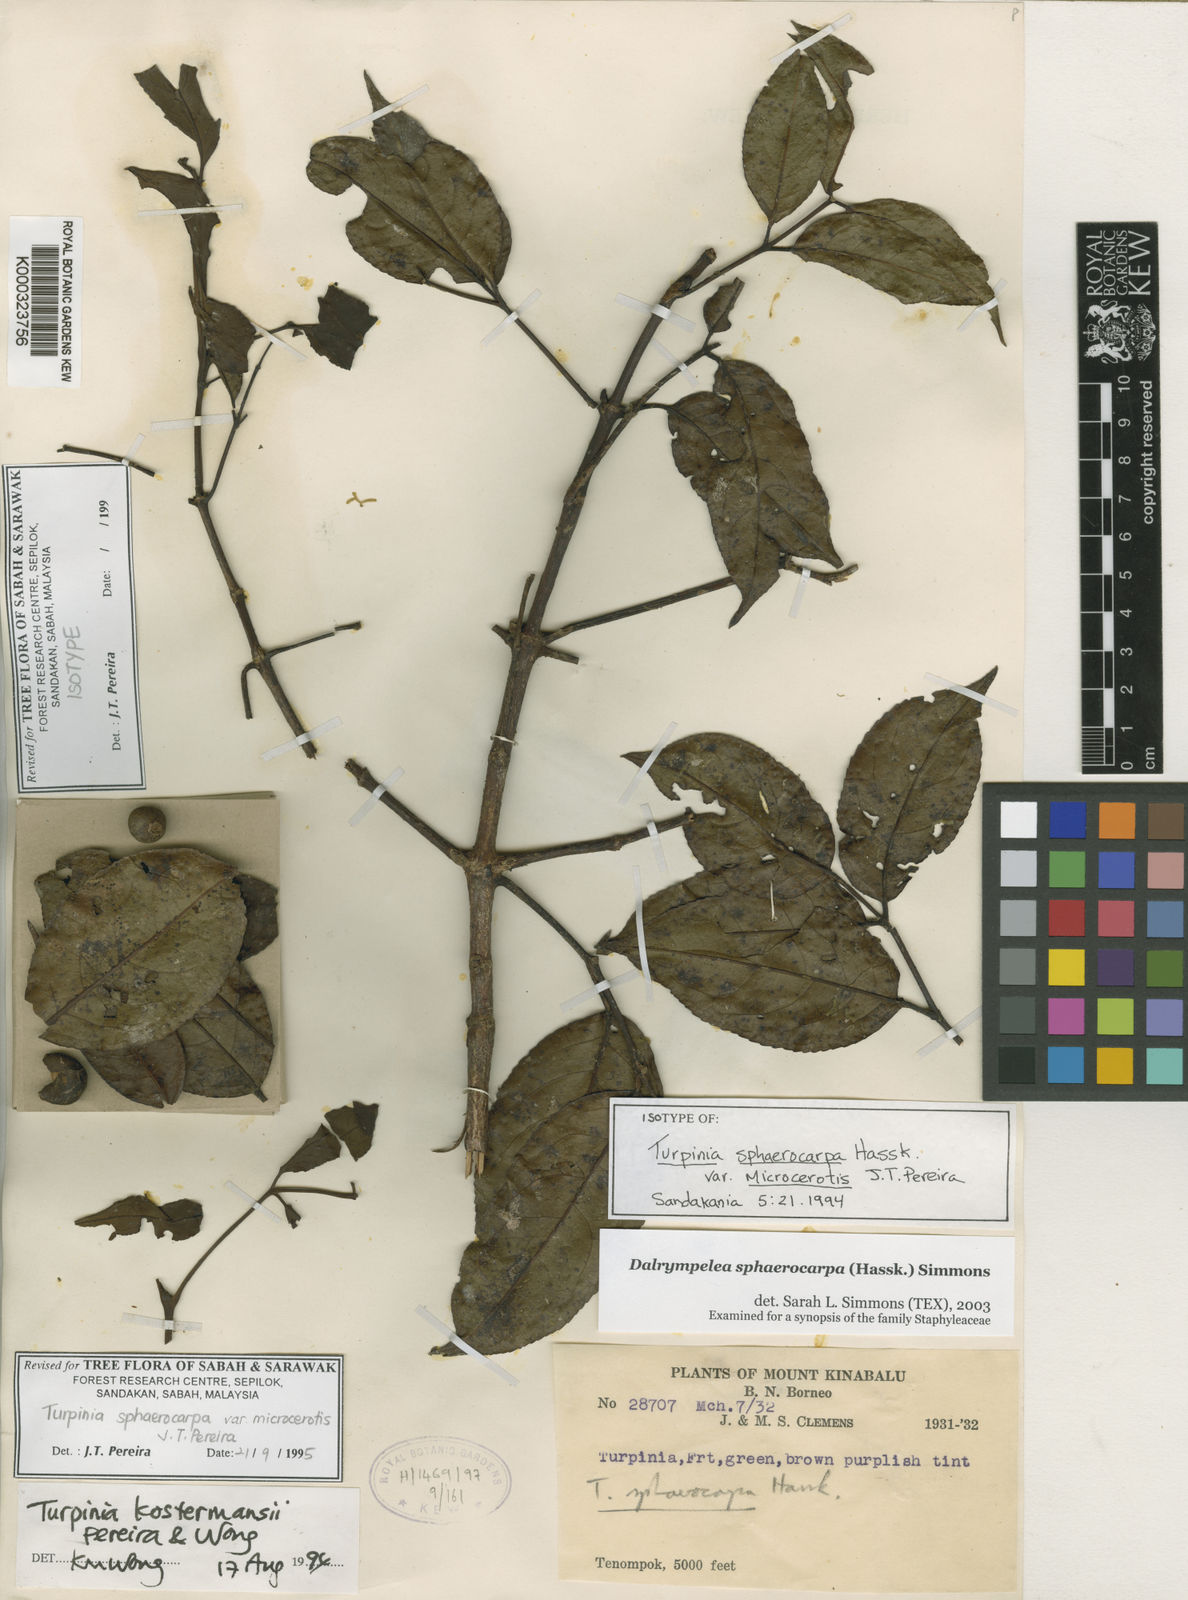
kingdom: Plantae
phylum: Tracheophyta
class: Magnoliopsida
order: Crossosomatales
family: Staphyleaceae
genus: Dalrympelea
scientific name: Dalrympelea sphaerocarpa
